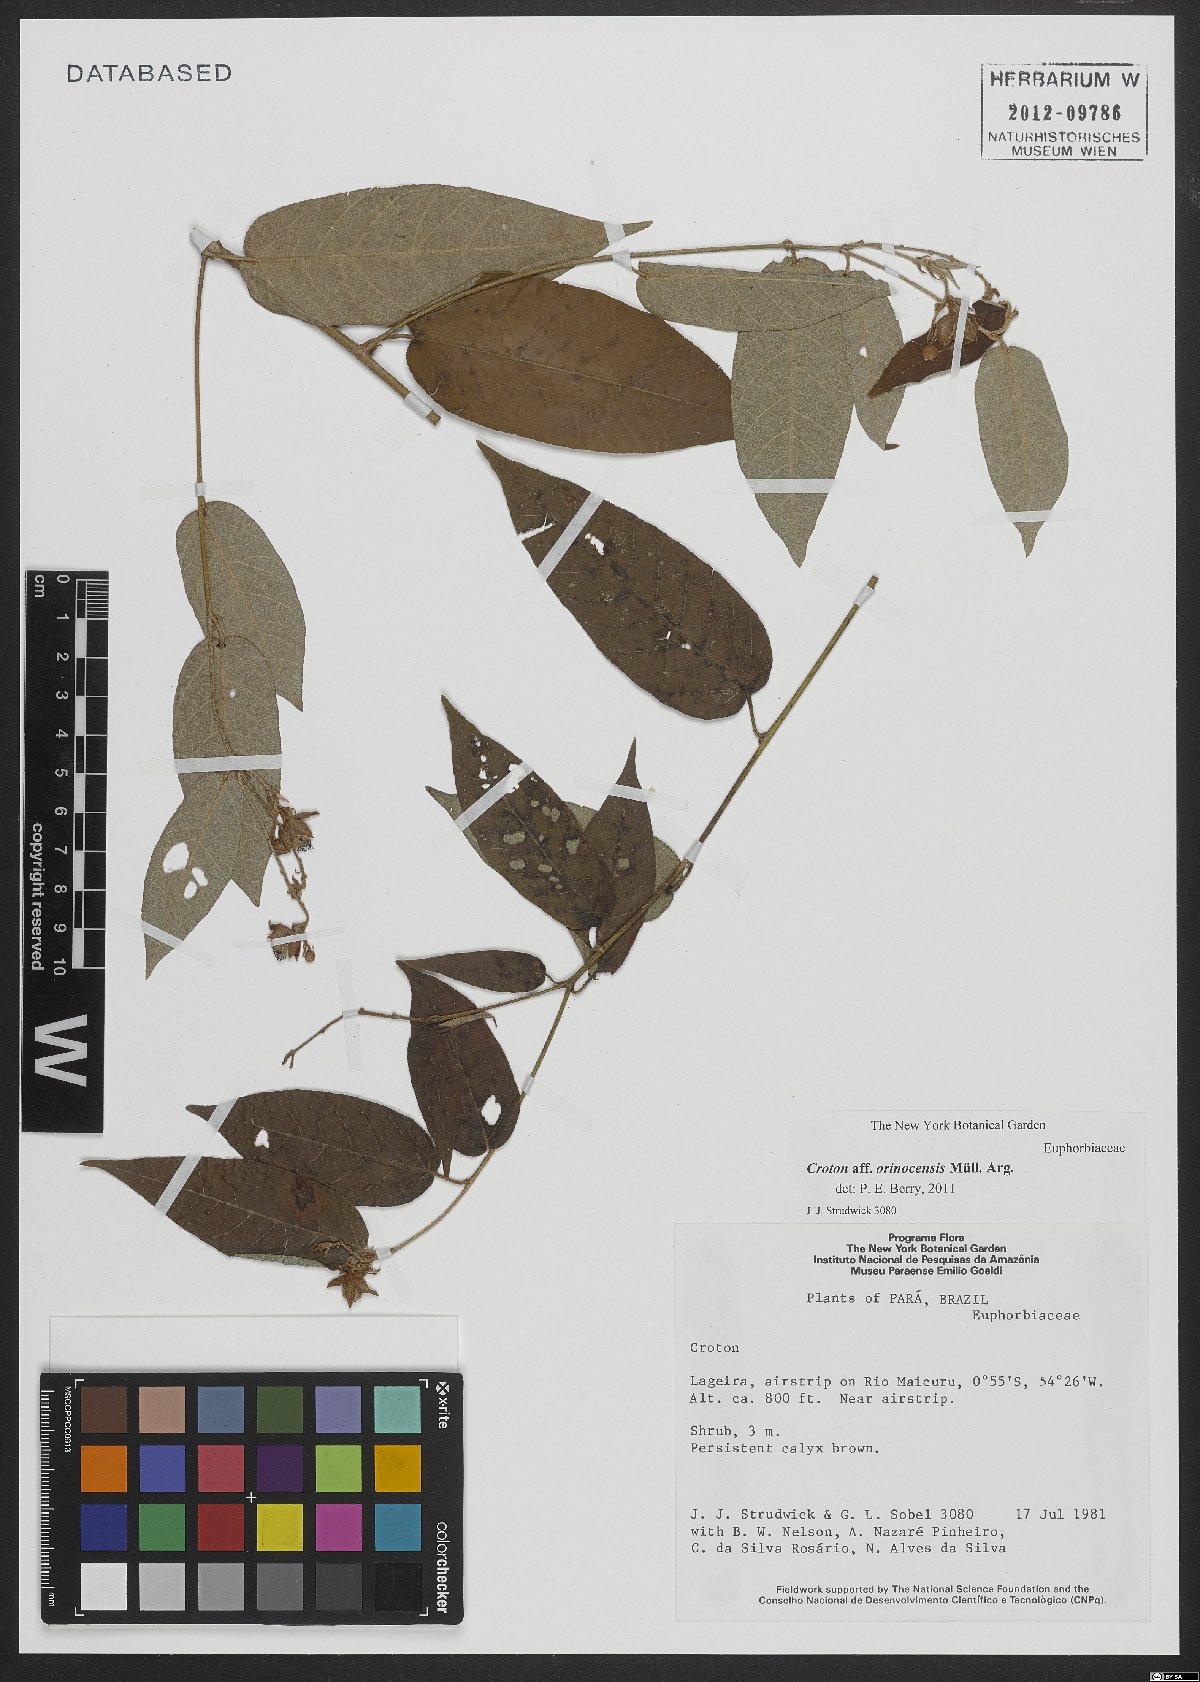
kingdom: Plantae
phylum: Tracheophyta
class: Magnoliopsida
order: Malpighiales
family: Euphorbiaceae
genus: Croton
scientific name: Croton orinocensis
